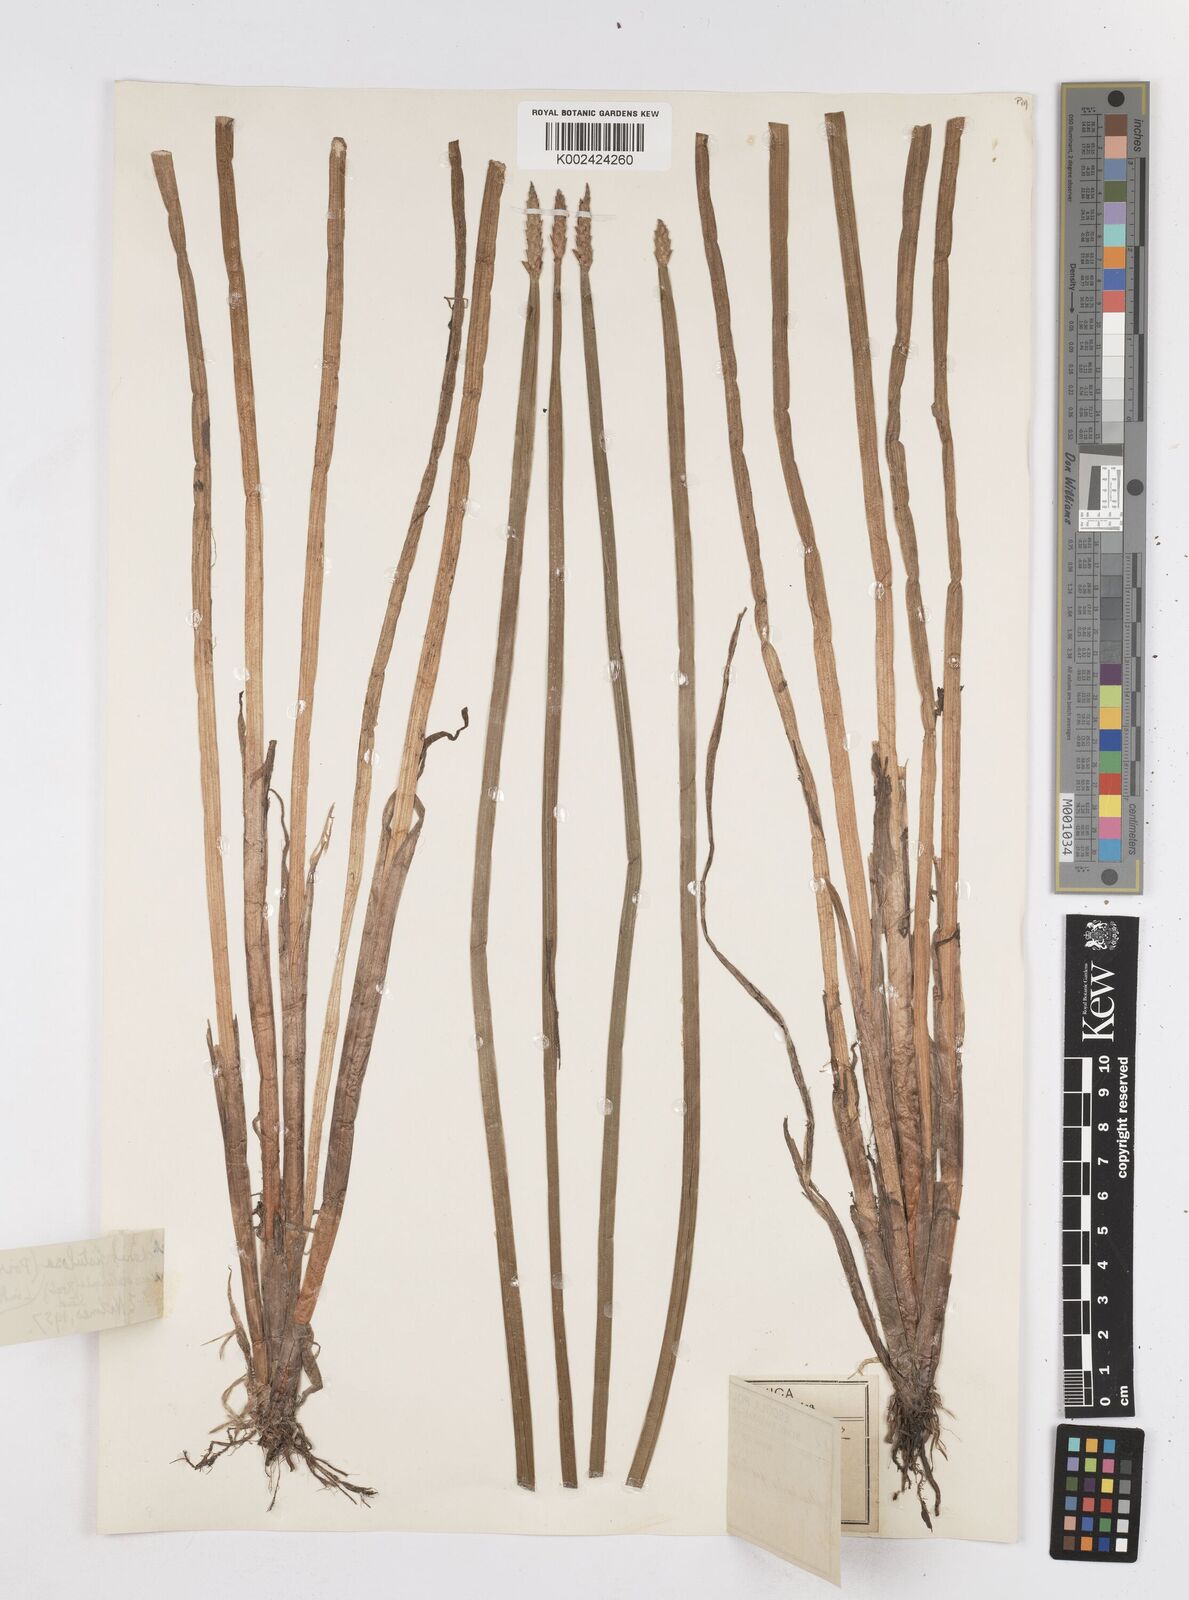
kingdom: Plantae
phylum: Tracheophyta
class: Liliopsida
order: Poales
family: Cyperaceae
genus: Eleocharis
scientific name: Eleocharis acutangula
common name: Acute spikerush
